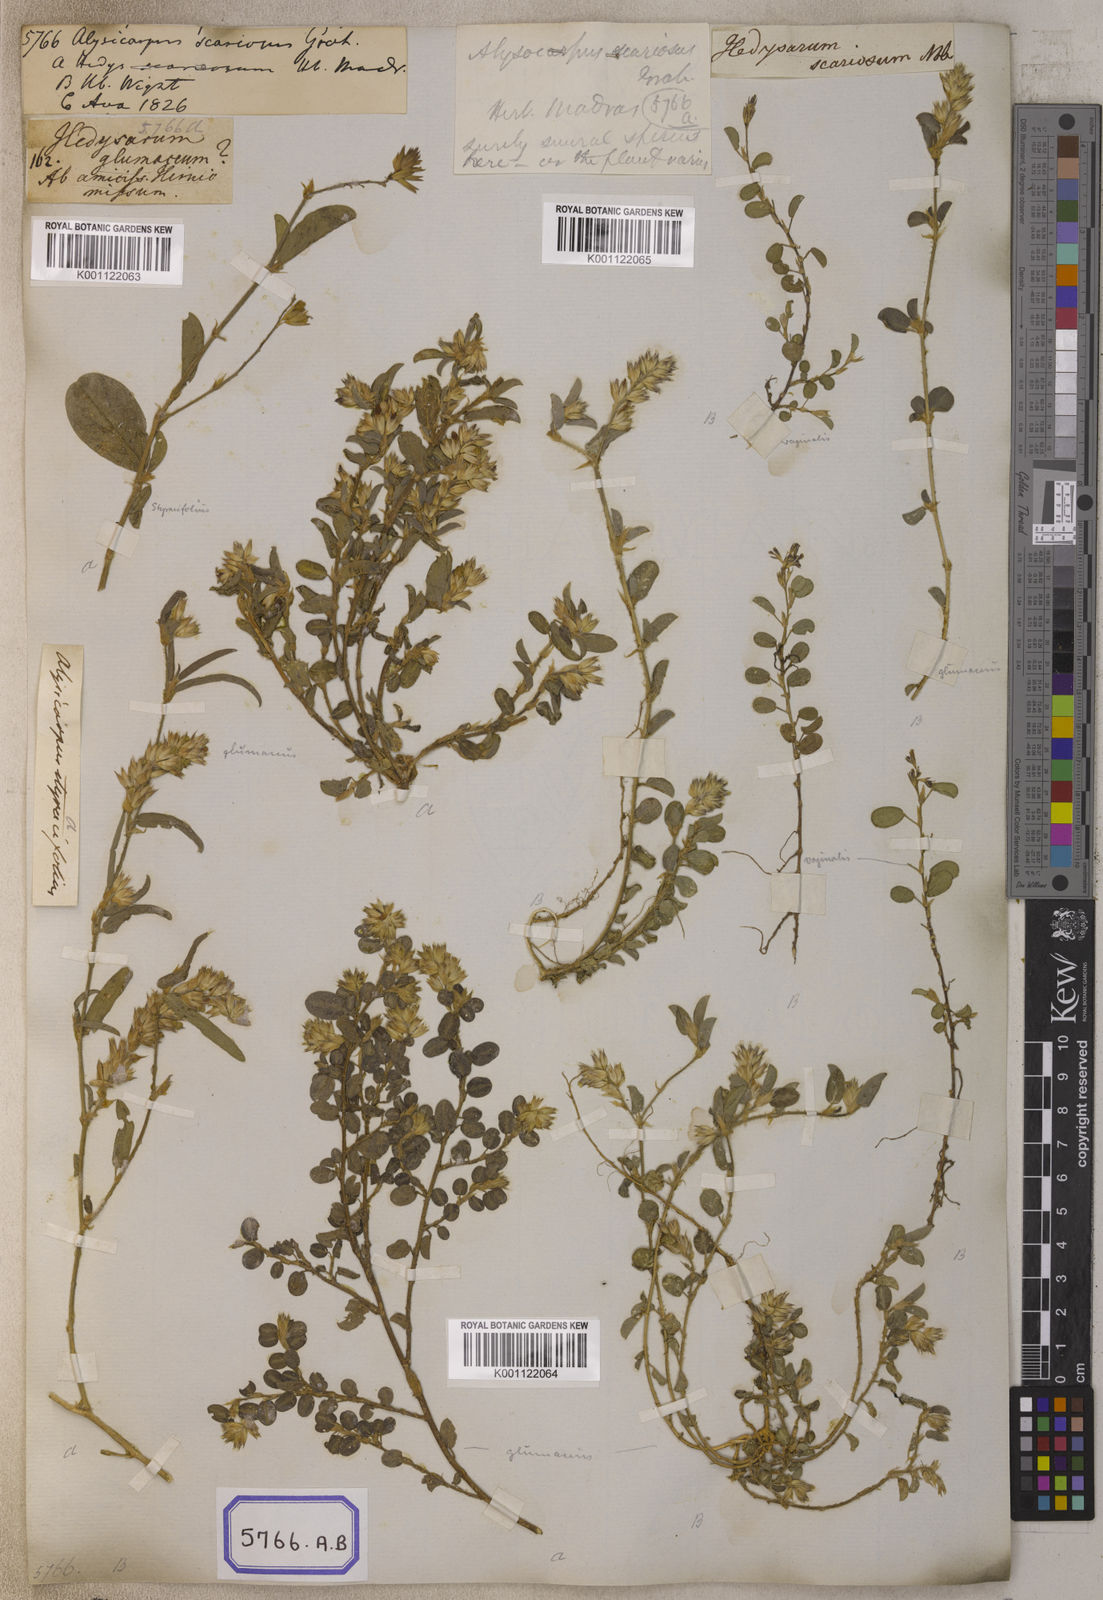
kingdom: Plantae
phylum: Tracheophyta
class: Magnoliopsida
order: Fabales
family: Fabaceae
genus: Alysicarpus
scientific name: Alysicarpus scariosus
